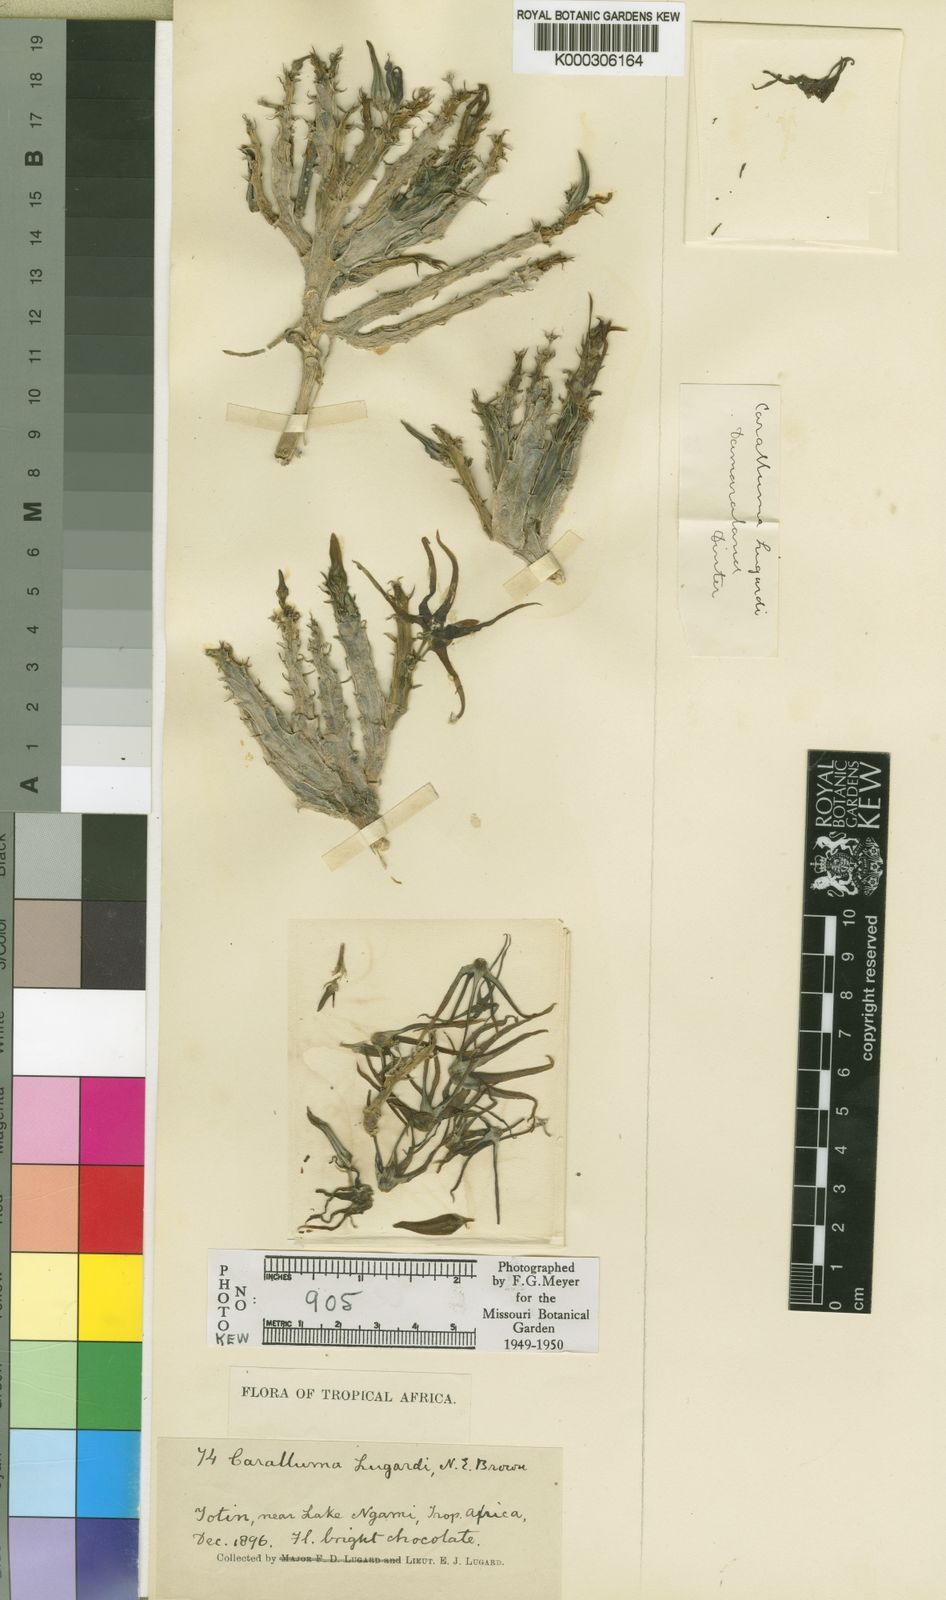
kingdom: Plantae
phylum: Tracheophyta
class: Magnoliopsida
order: Gentianales
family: Apocynaceae
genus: Ceropegia
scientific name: Ceropegia lugardiana
